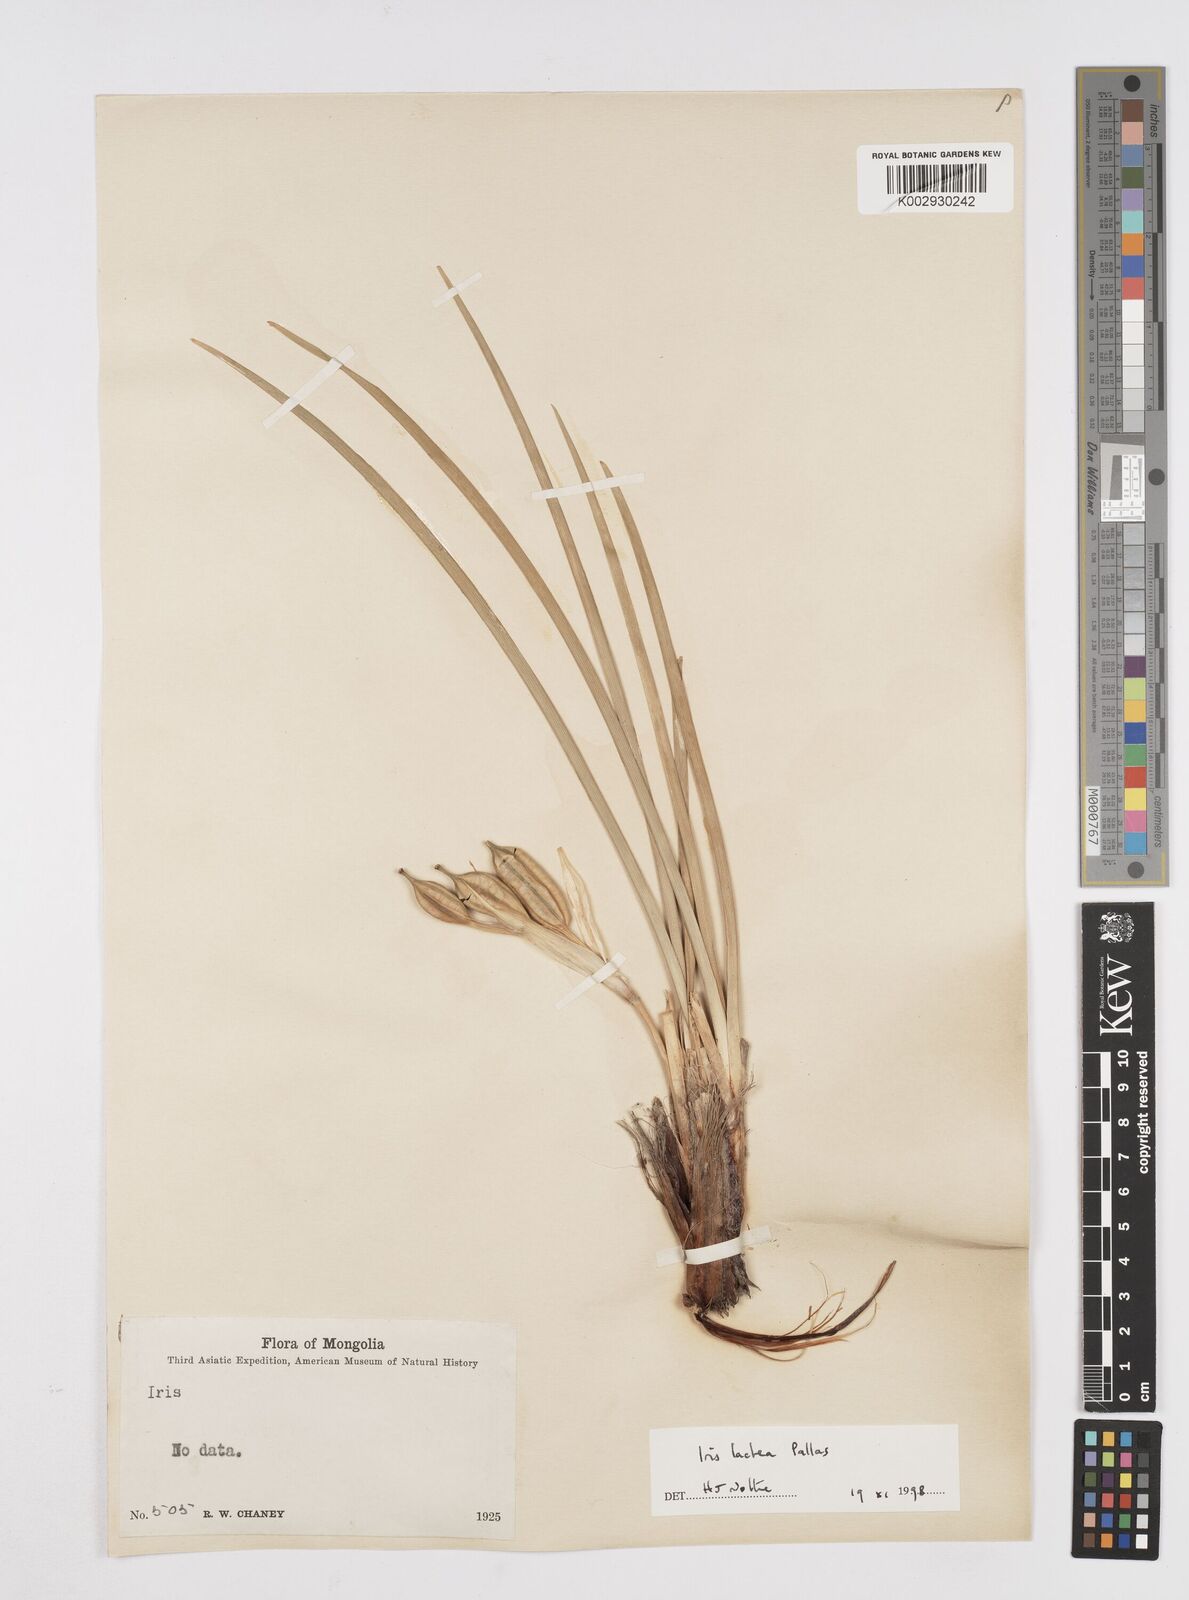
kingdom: Plantae
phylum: Tracheophyta
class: Liliopsida
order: Asparagales
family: Iridaceae
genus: Iris
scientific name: Iris lactea
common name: White-flower chinese iris
